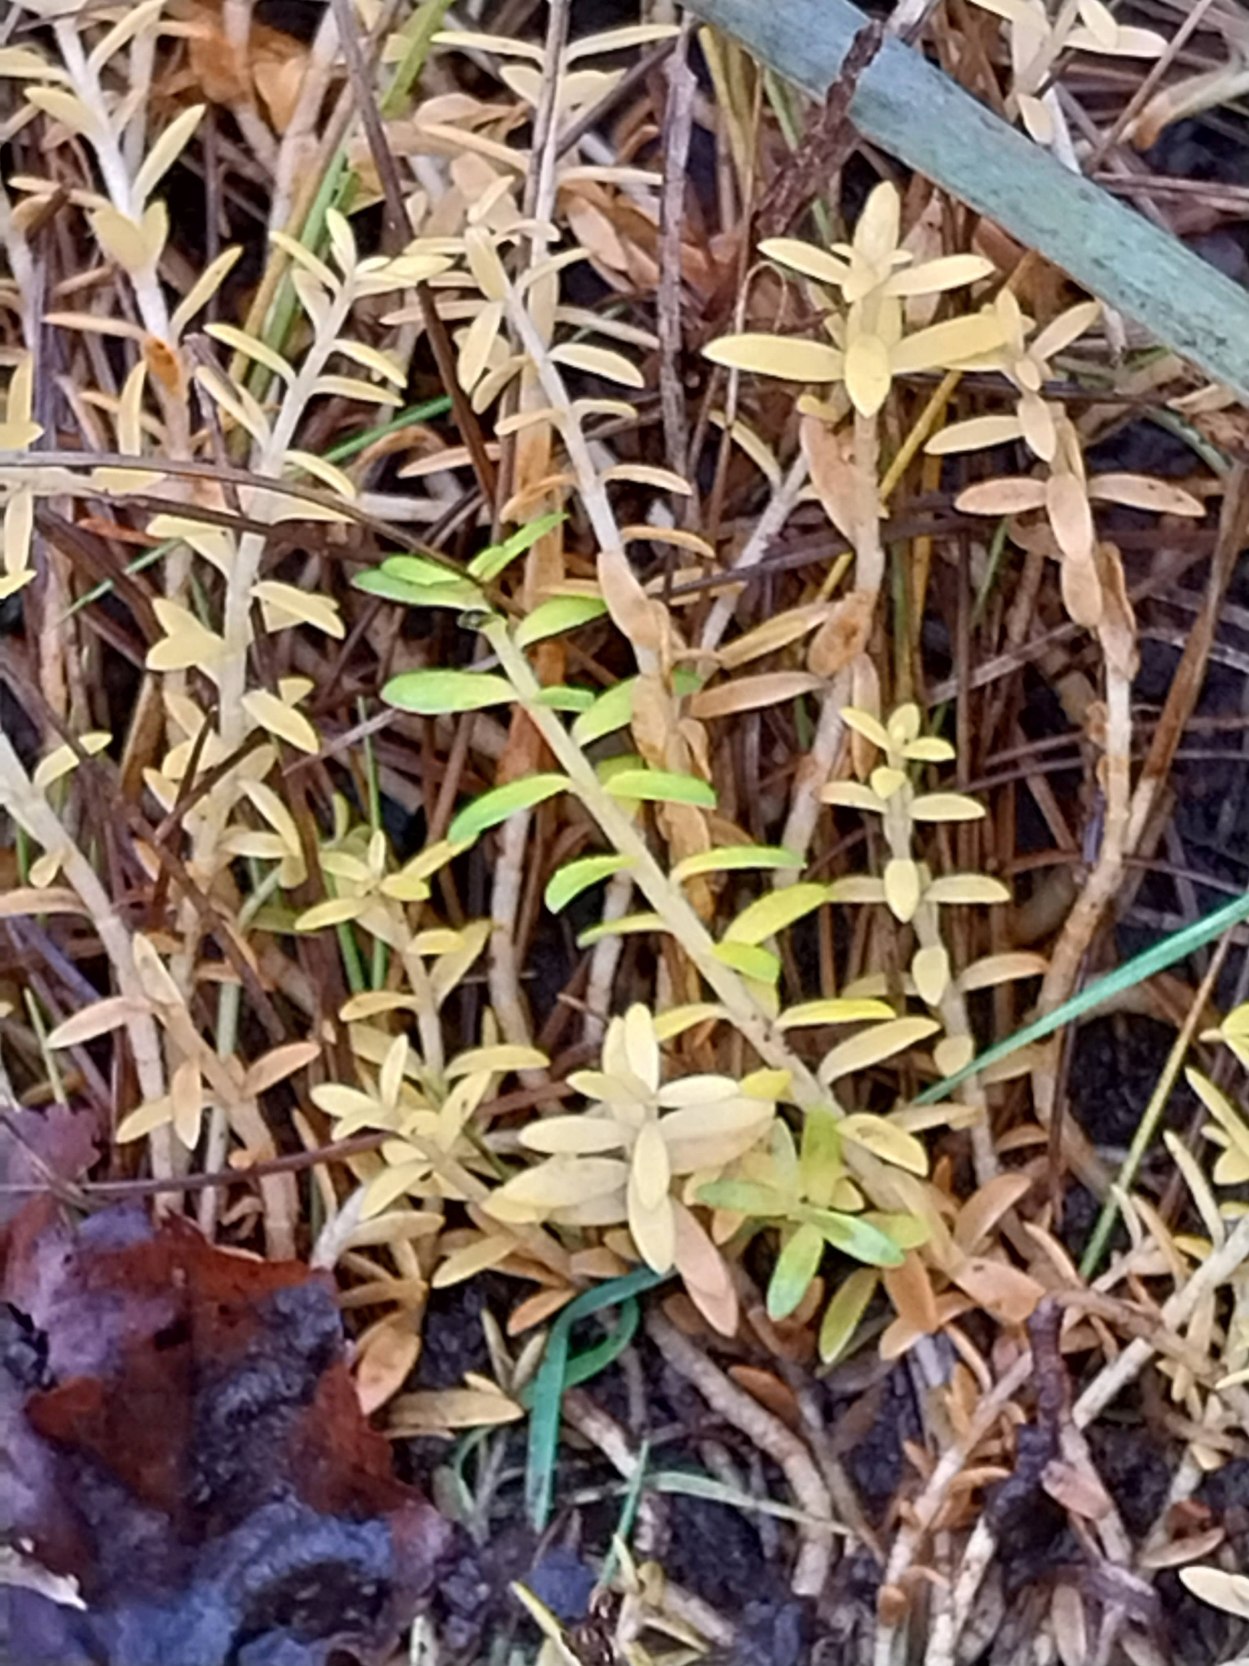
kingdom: Plantae
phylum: Tracheophyta
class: Magnoliopsida
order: Ericales
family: Primulaceae
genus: Lysimachia
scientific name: Lysimachia maritima
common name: Sandkryb
